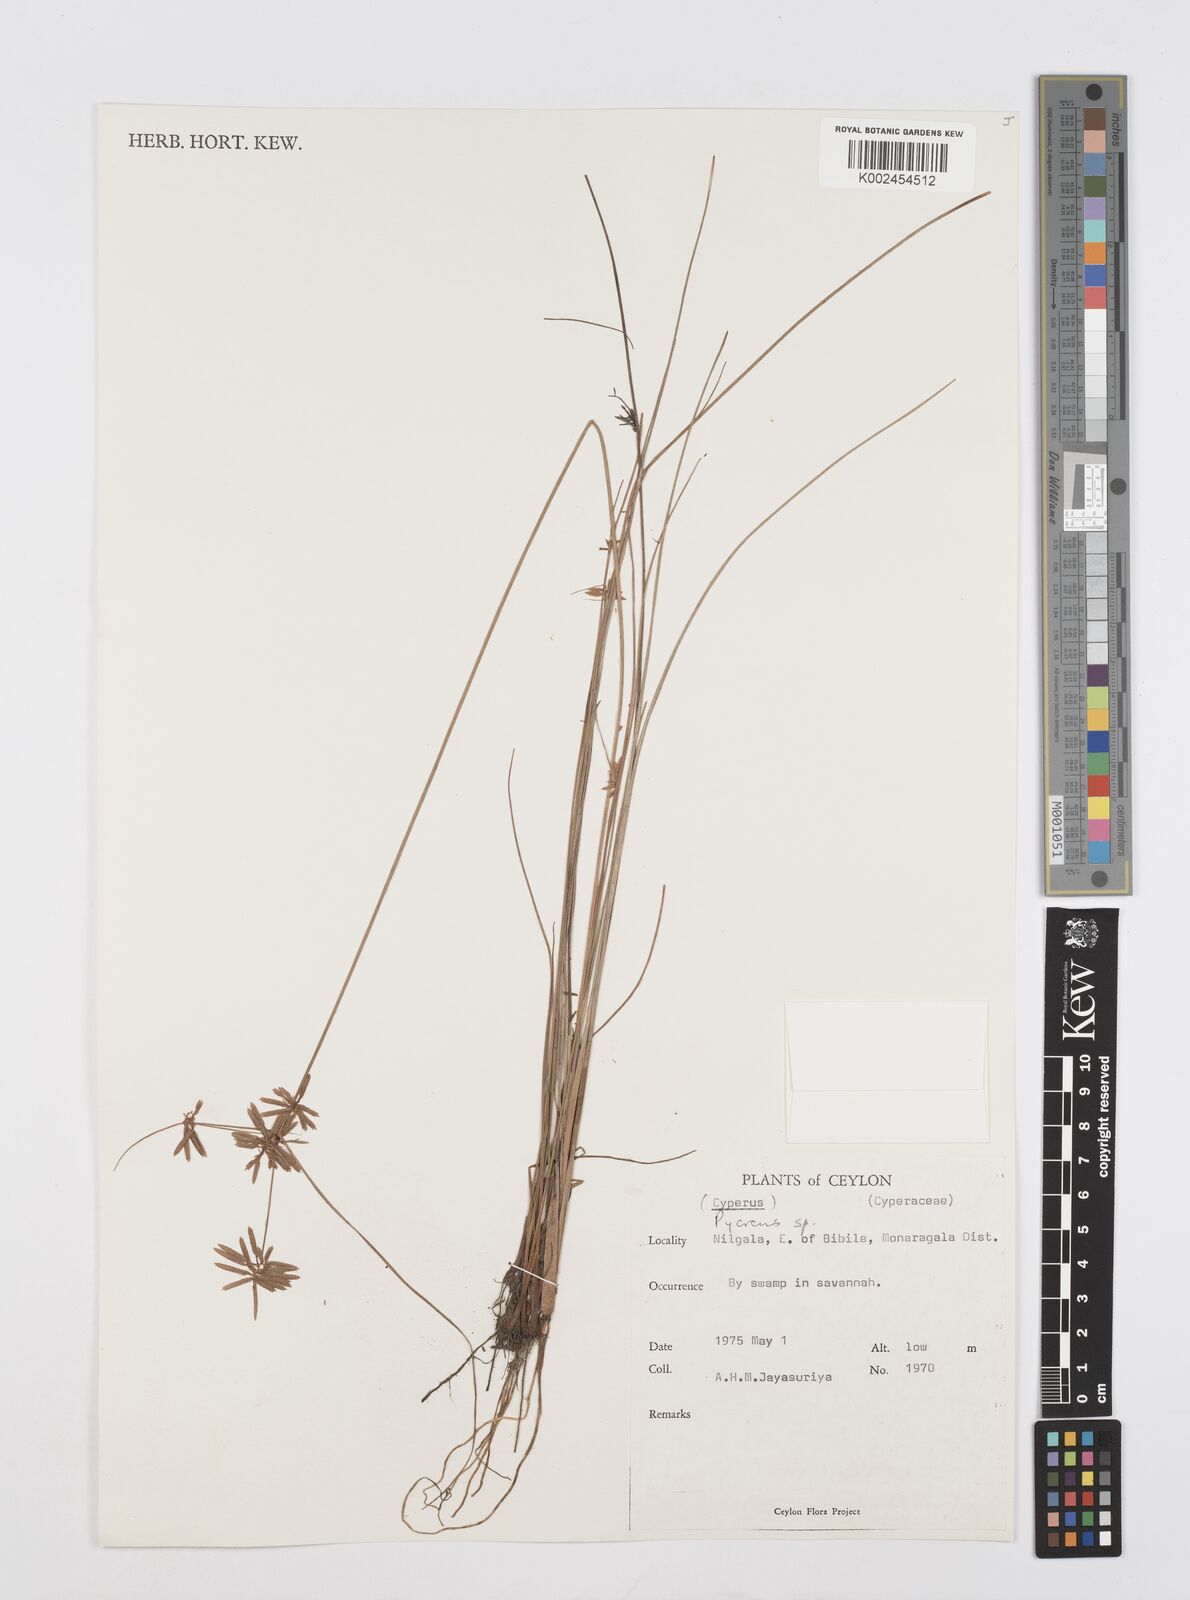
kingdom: Plantae
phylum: Tracheophyta
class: Liliopsida
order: Poales
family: Cyperaceae
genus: Cyperus
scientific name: Cyperus
